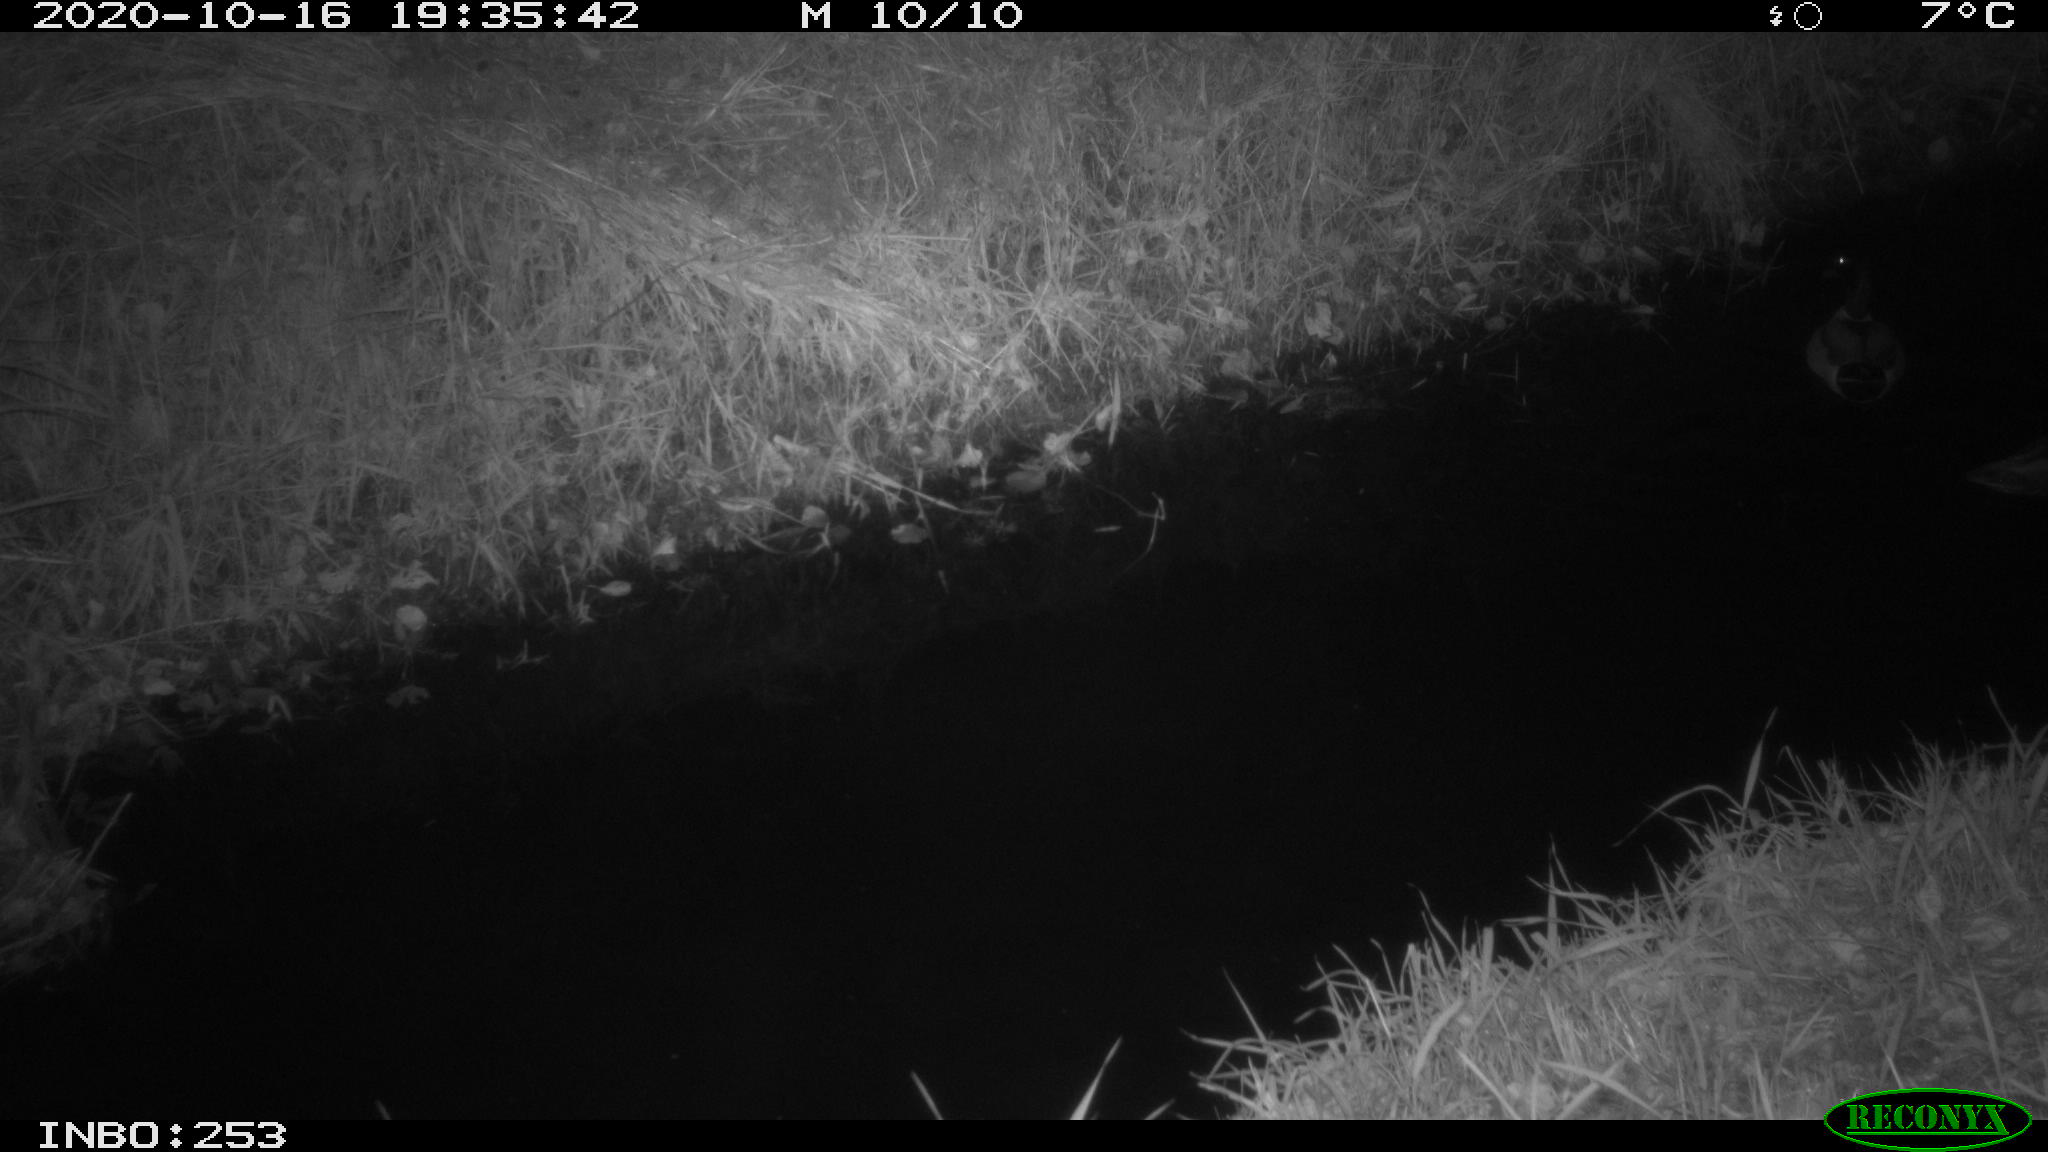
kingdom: Animalia
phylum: Chordata
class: Aves
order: Anseriformes
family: Anatidae
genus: Anas
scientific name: Anas platyrhynchos
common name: Mallard
